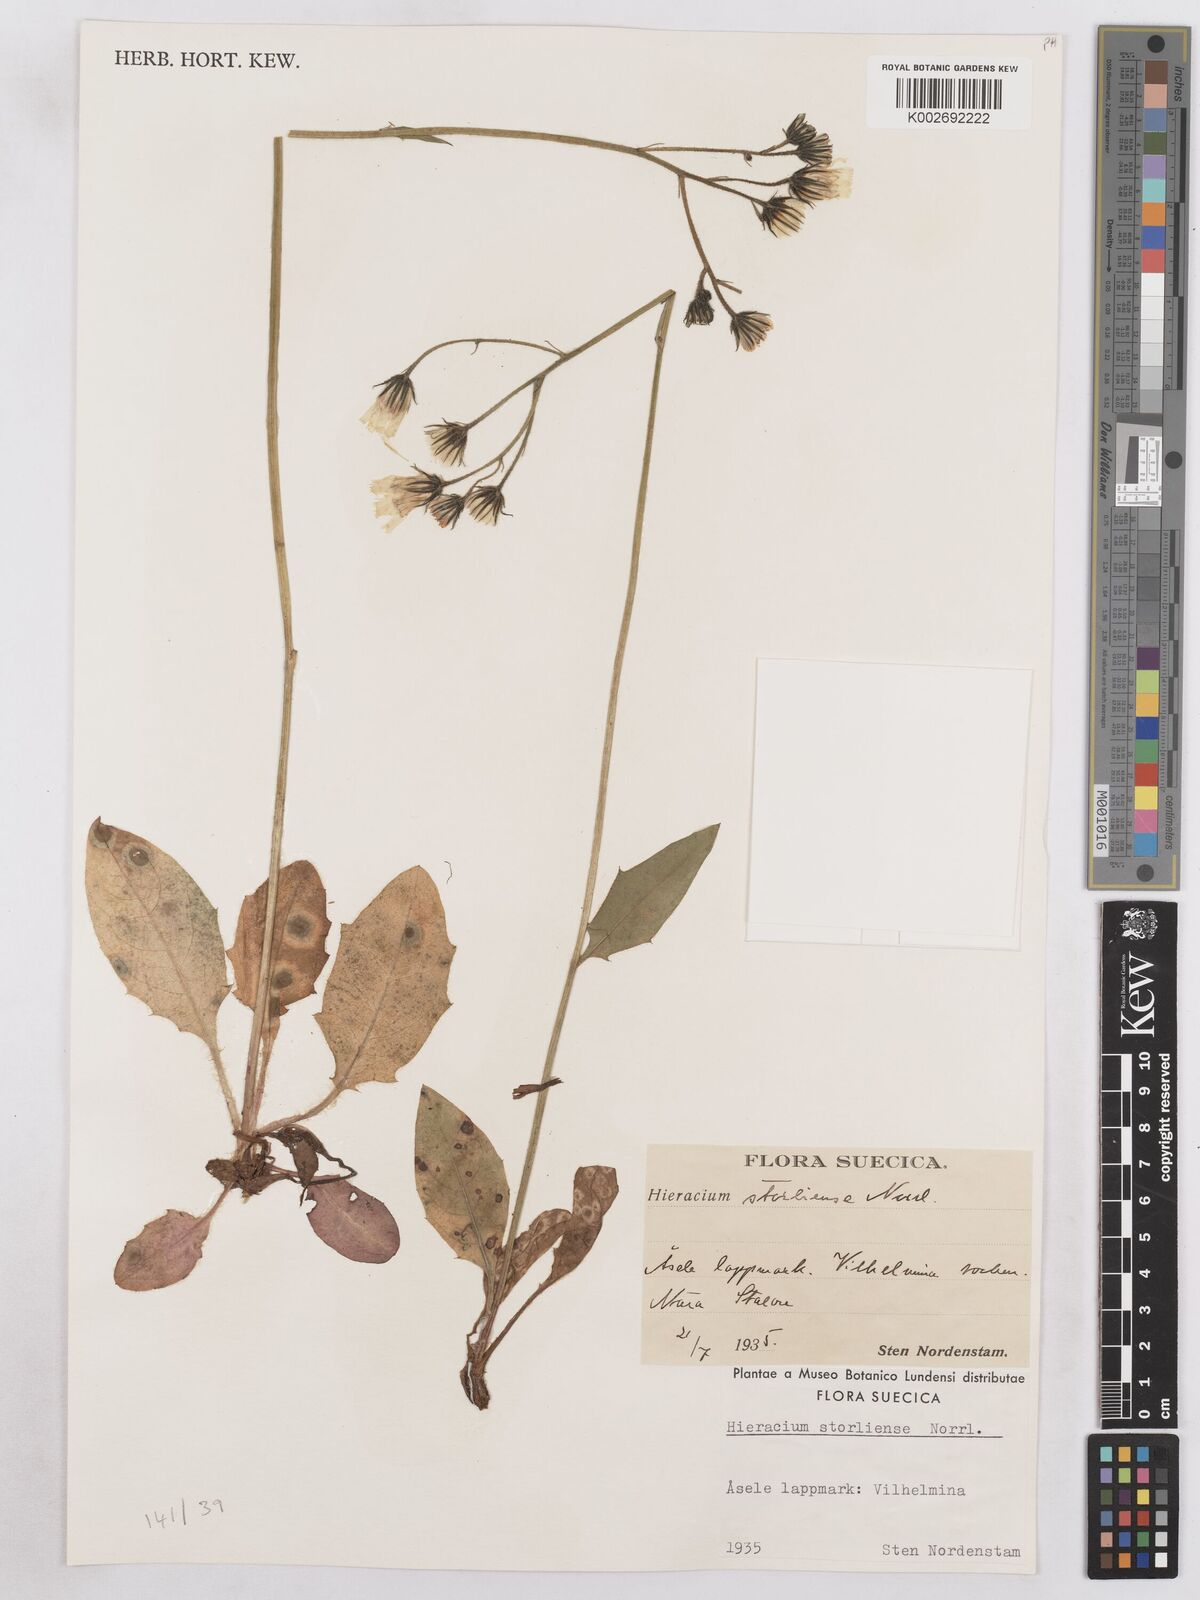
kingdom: Plantae
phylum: Tracheophyta
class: Magnoliopsida
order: Asterales
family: Asteraceae
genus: Hieracium
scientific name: Hieracium diaphanoides
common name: Fine-bracted hawkweed
